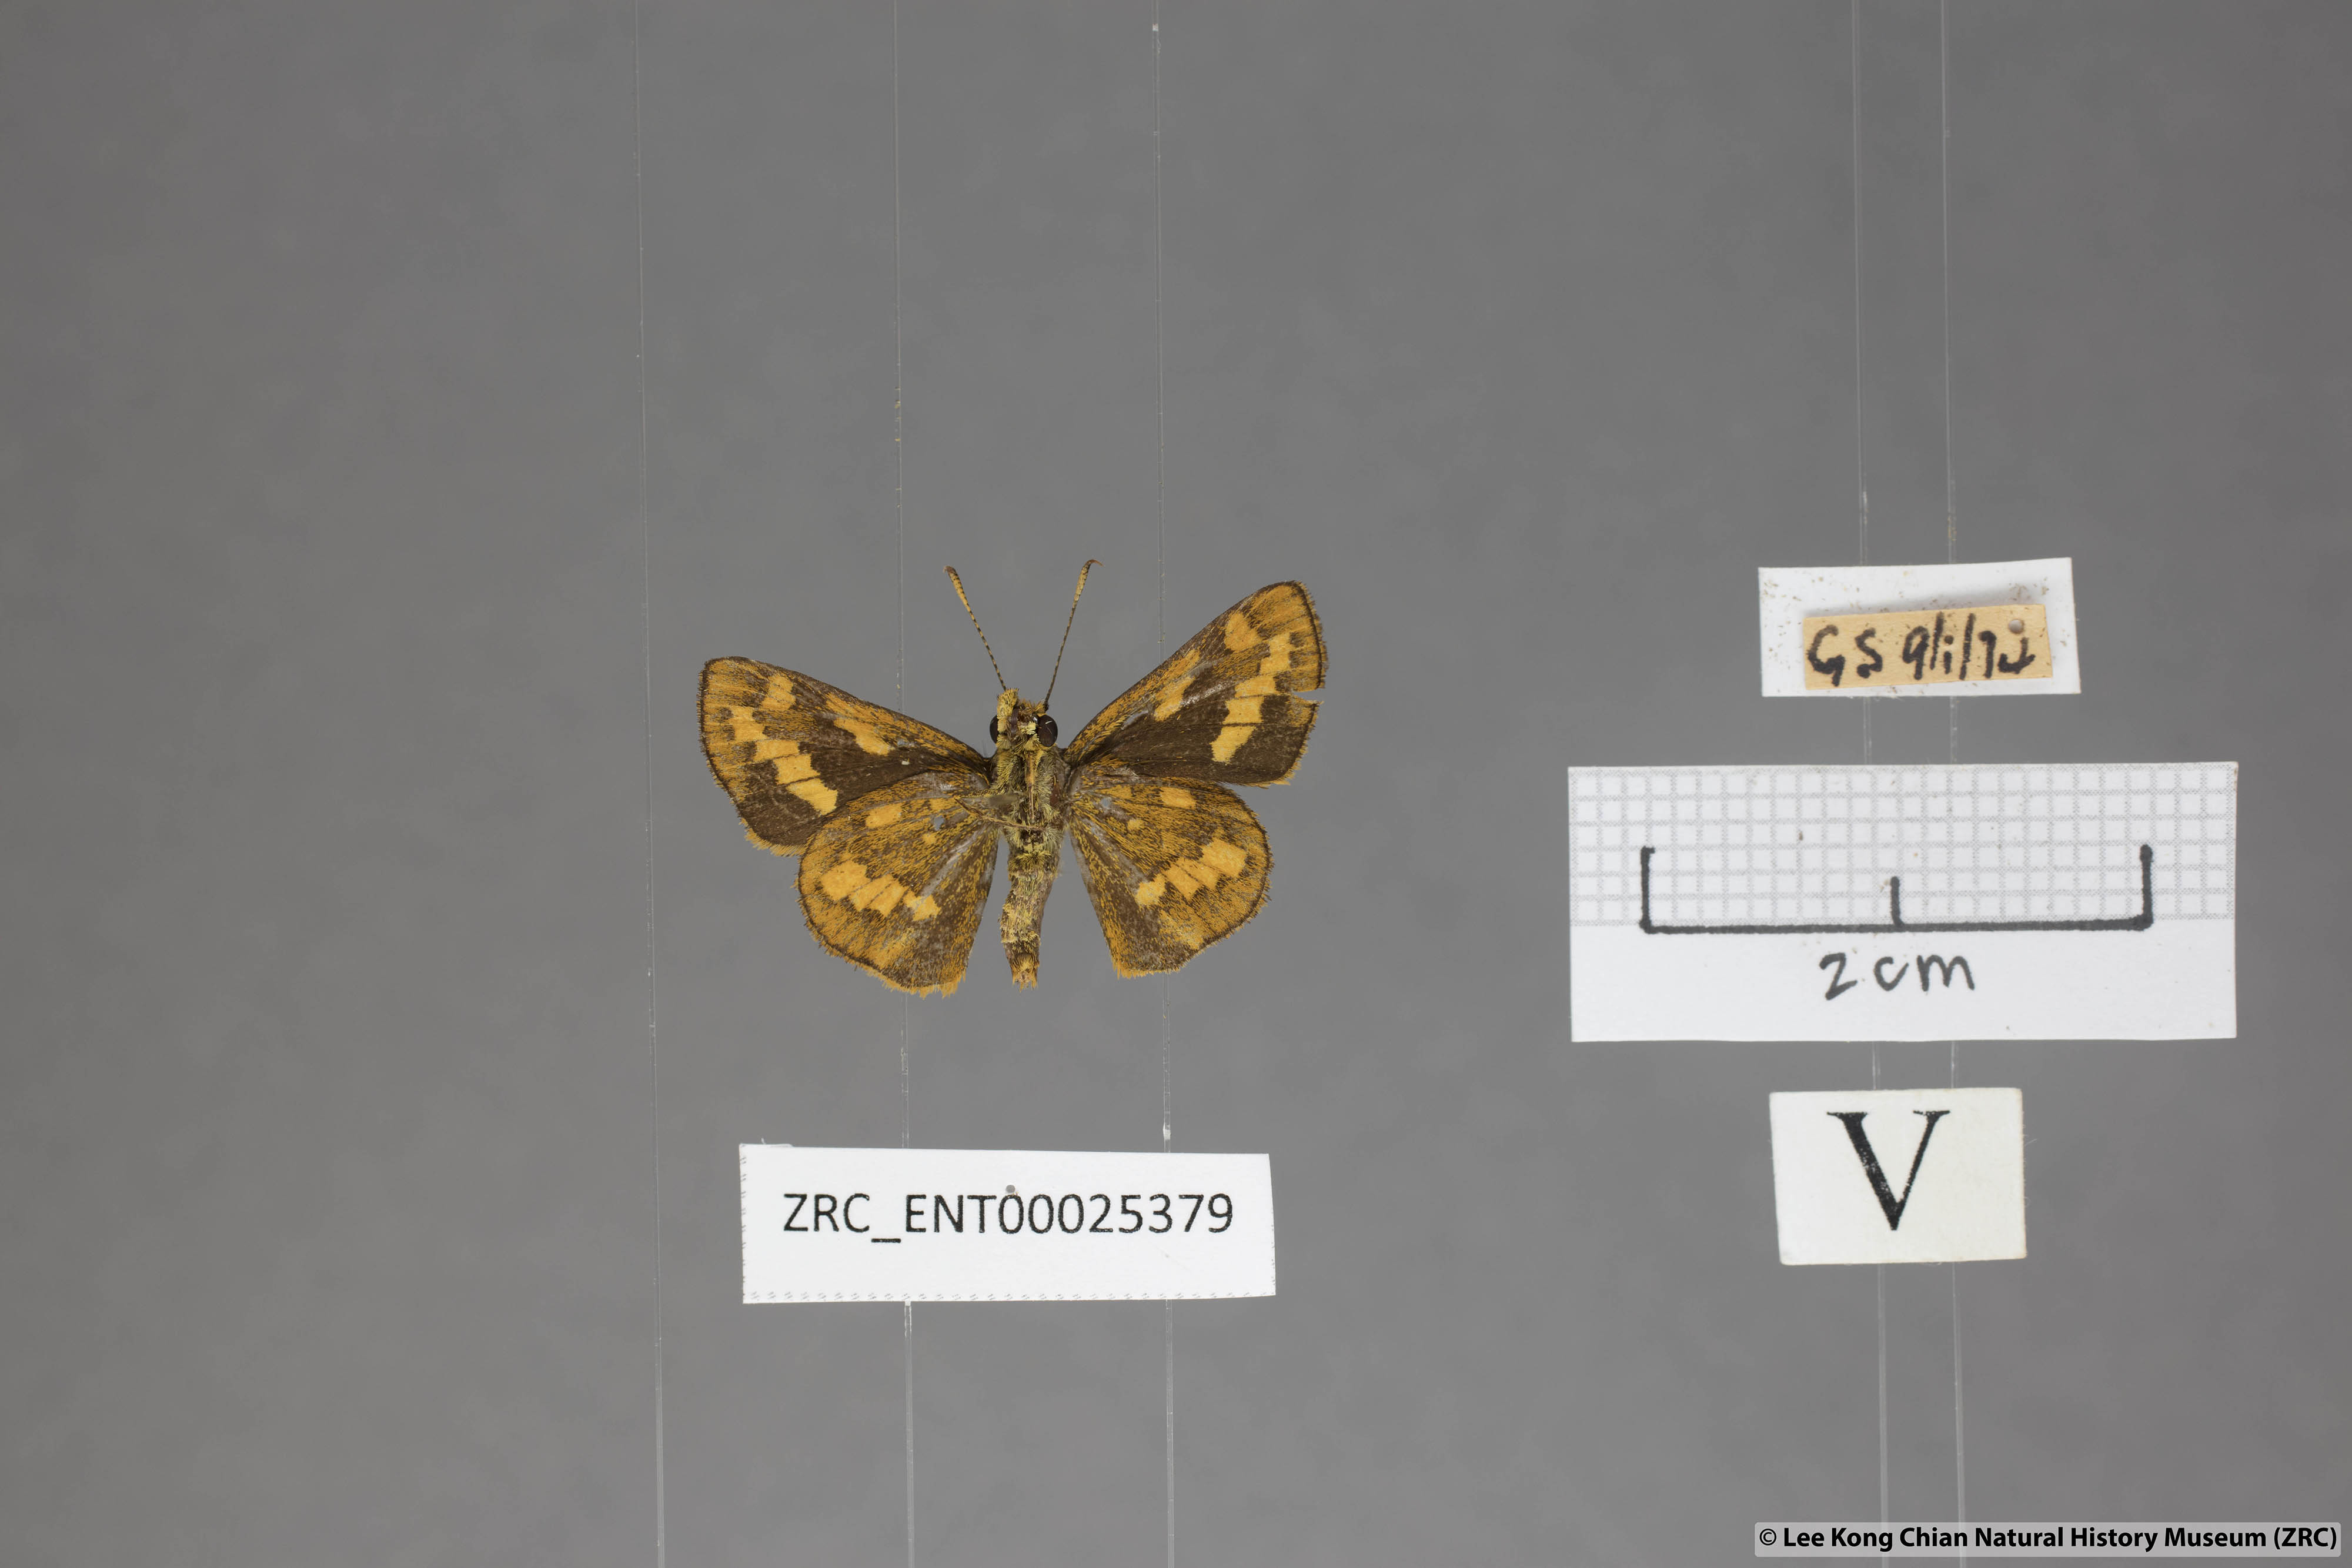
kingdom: Animalia
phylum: Arthropoda
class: Insecta
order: Lepidoptera
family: Hesperiidae
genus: Potanthus
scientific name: Potanthus ganda
